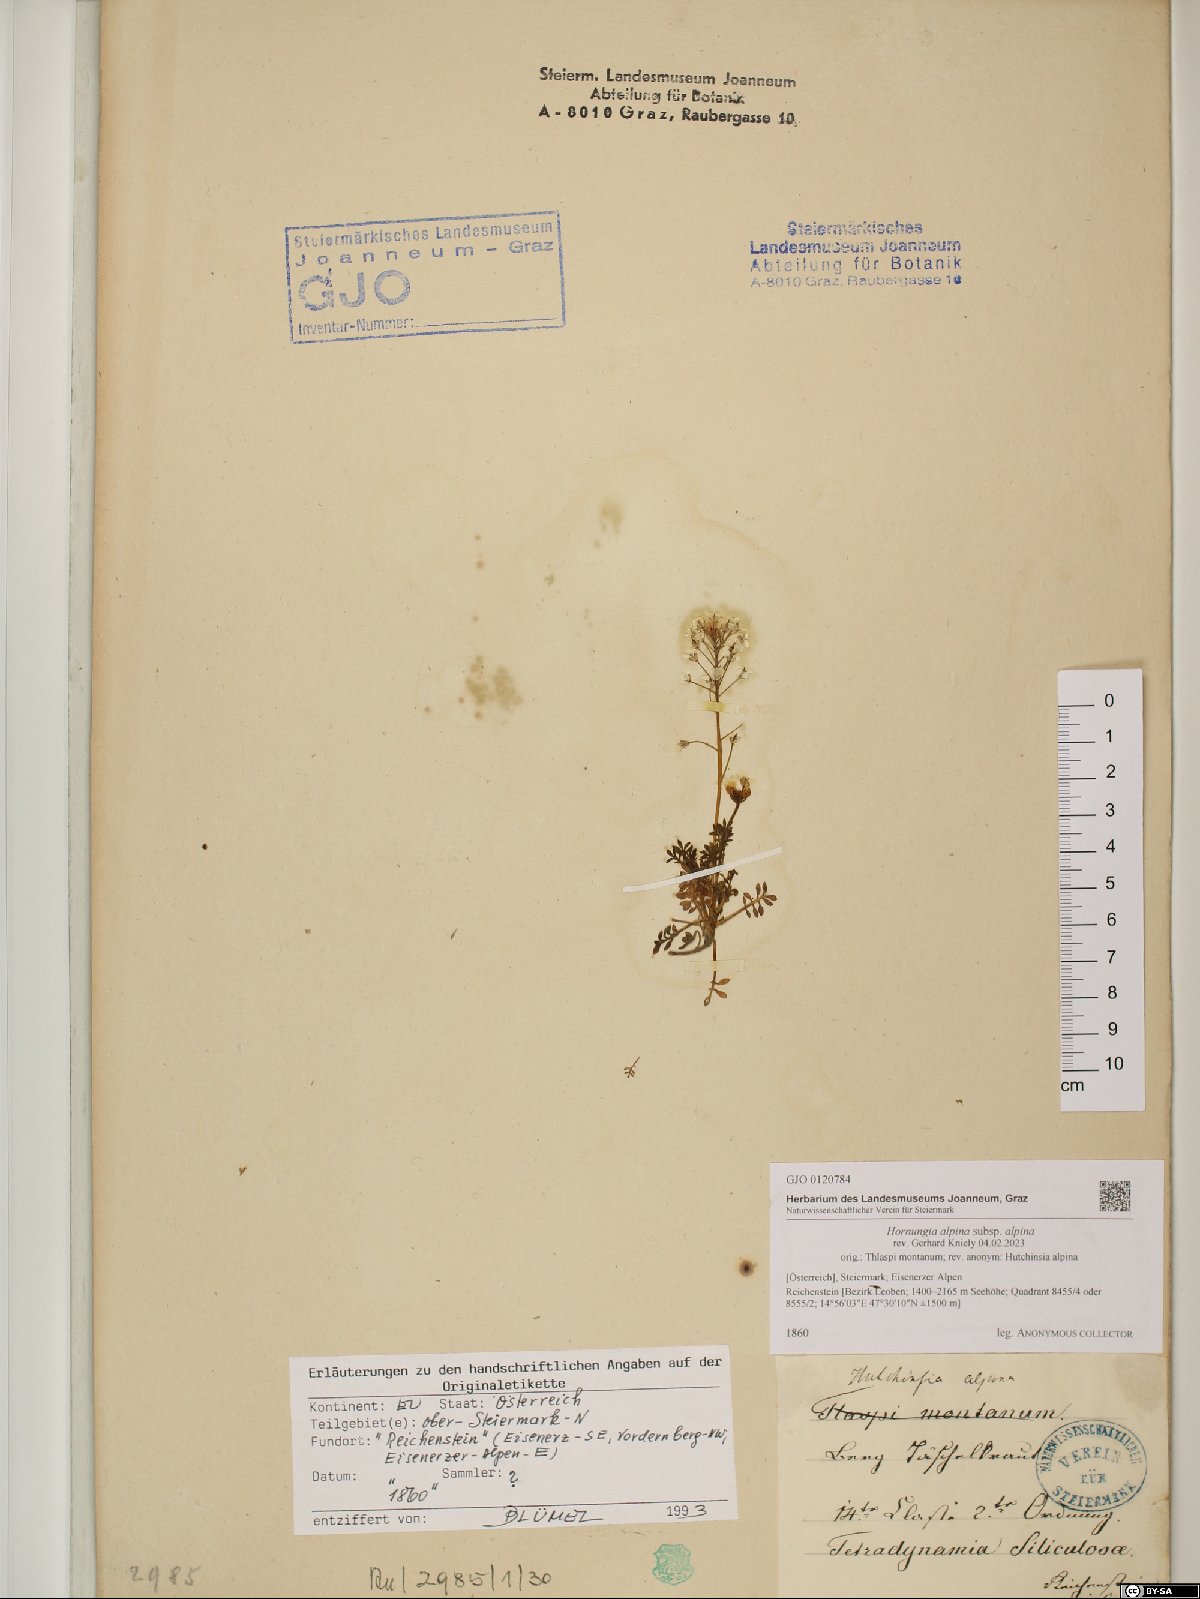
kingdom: Plantae
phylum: Tracheophyta
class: Magnoliopsida
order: Brassicales
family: Brassicaceae
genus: Hornungia
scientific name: Hornungia alpina
